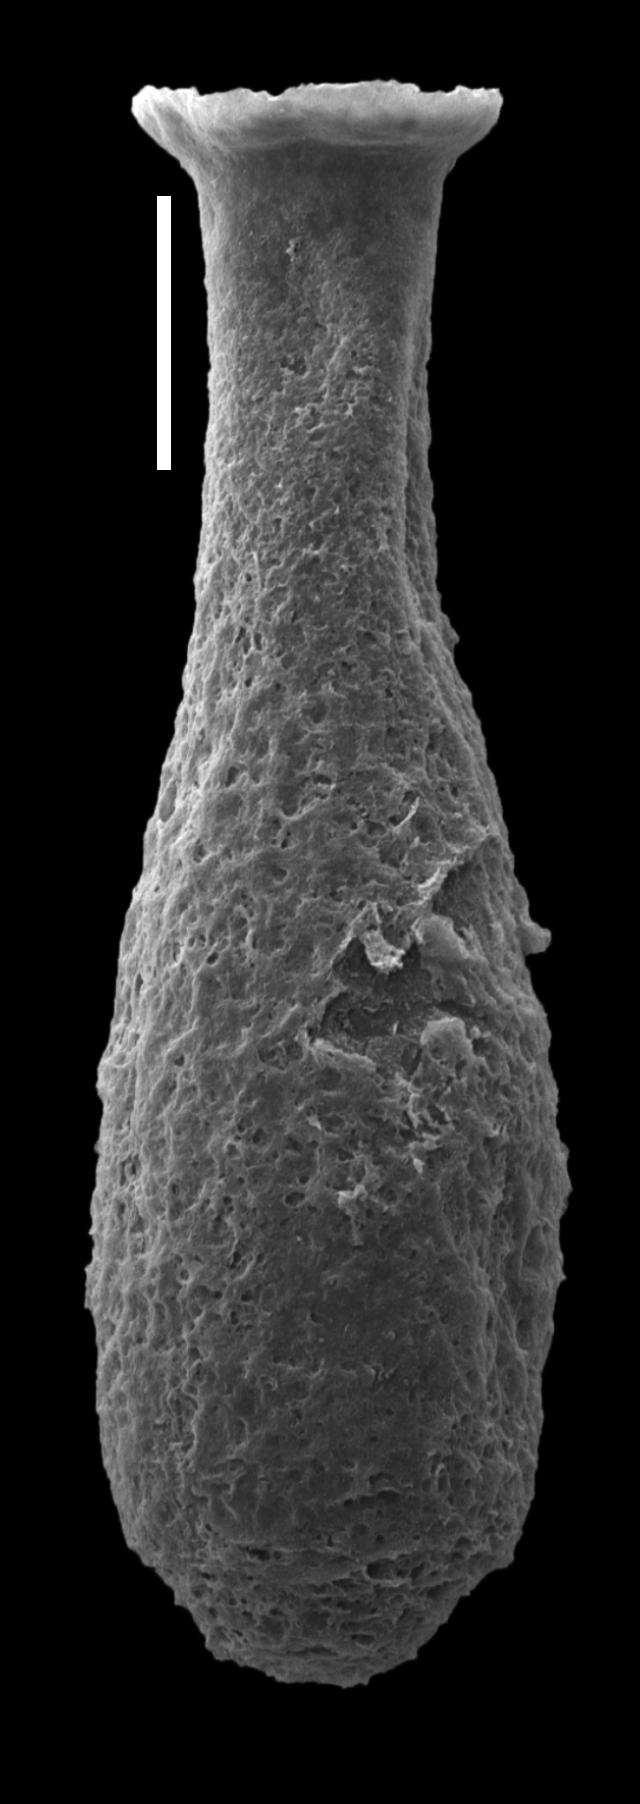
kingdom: Animalia
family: Lagenochitinidae
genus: Lagenochitina
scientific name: Lagenochitina
